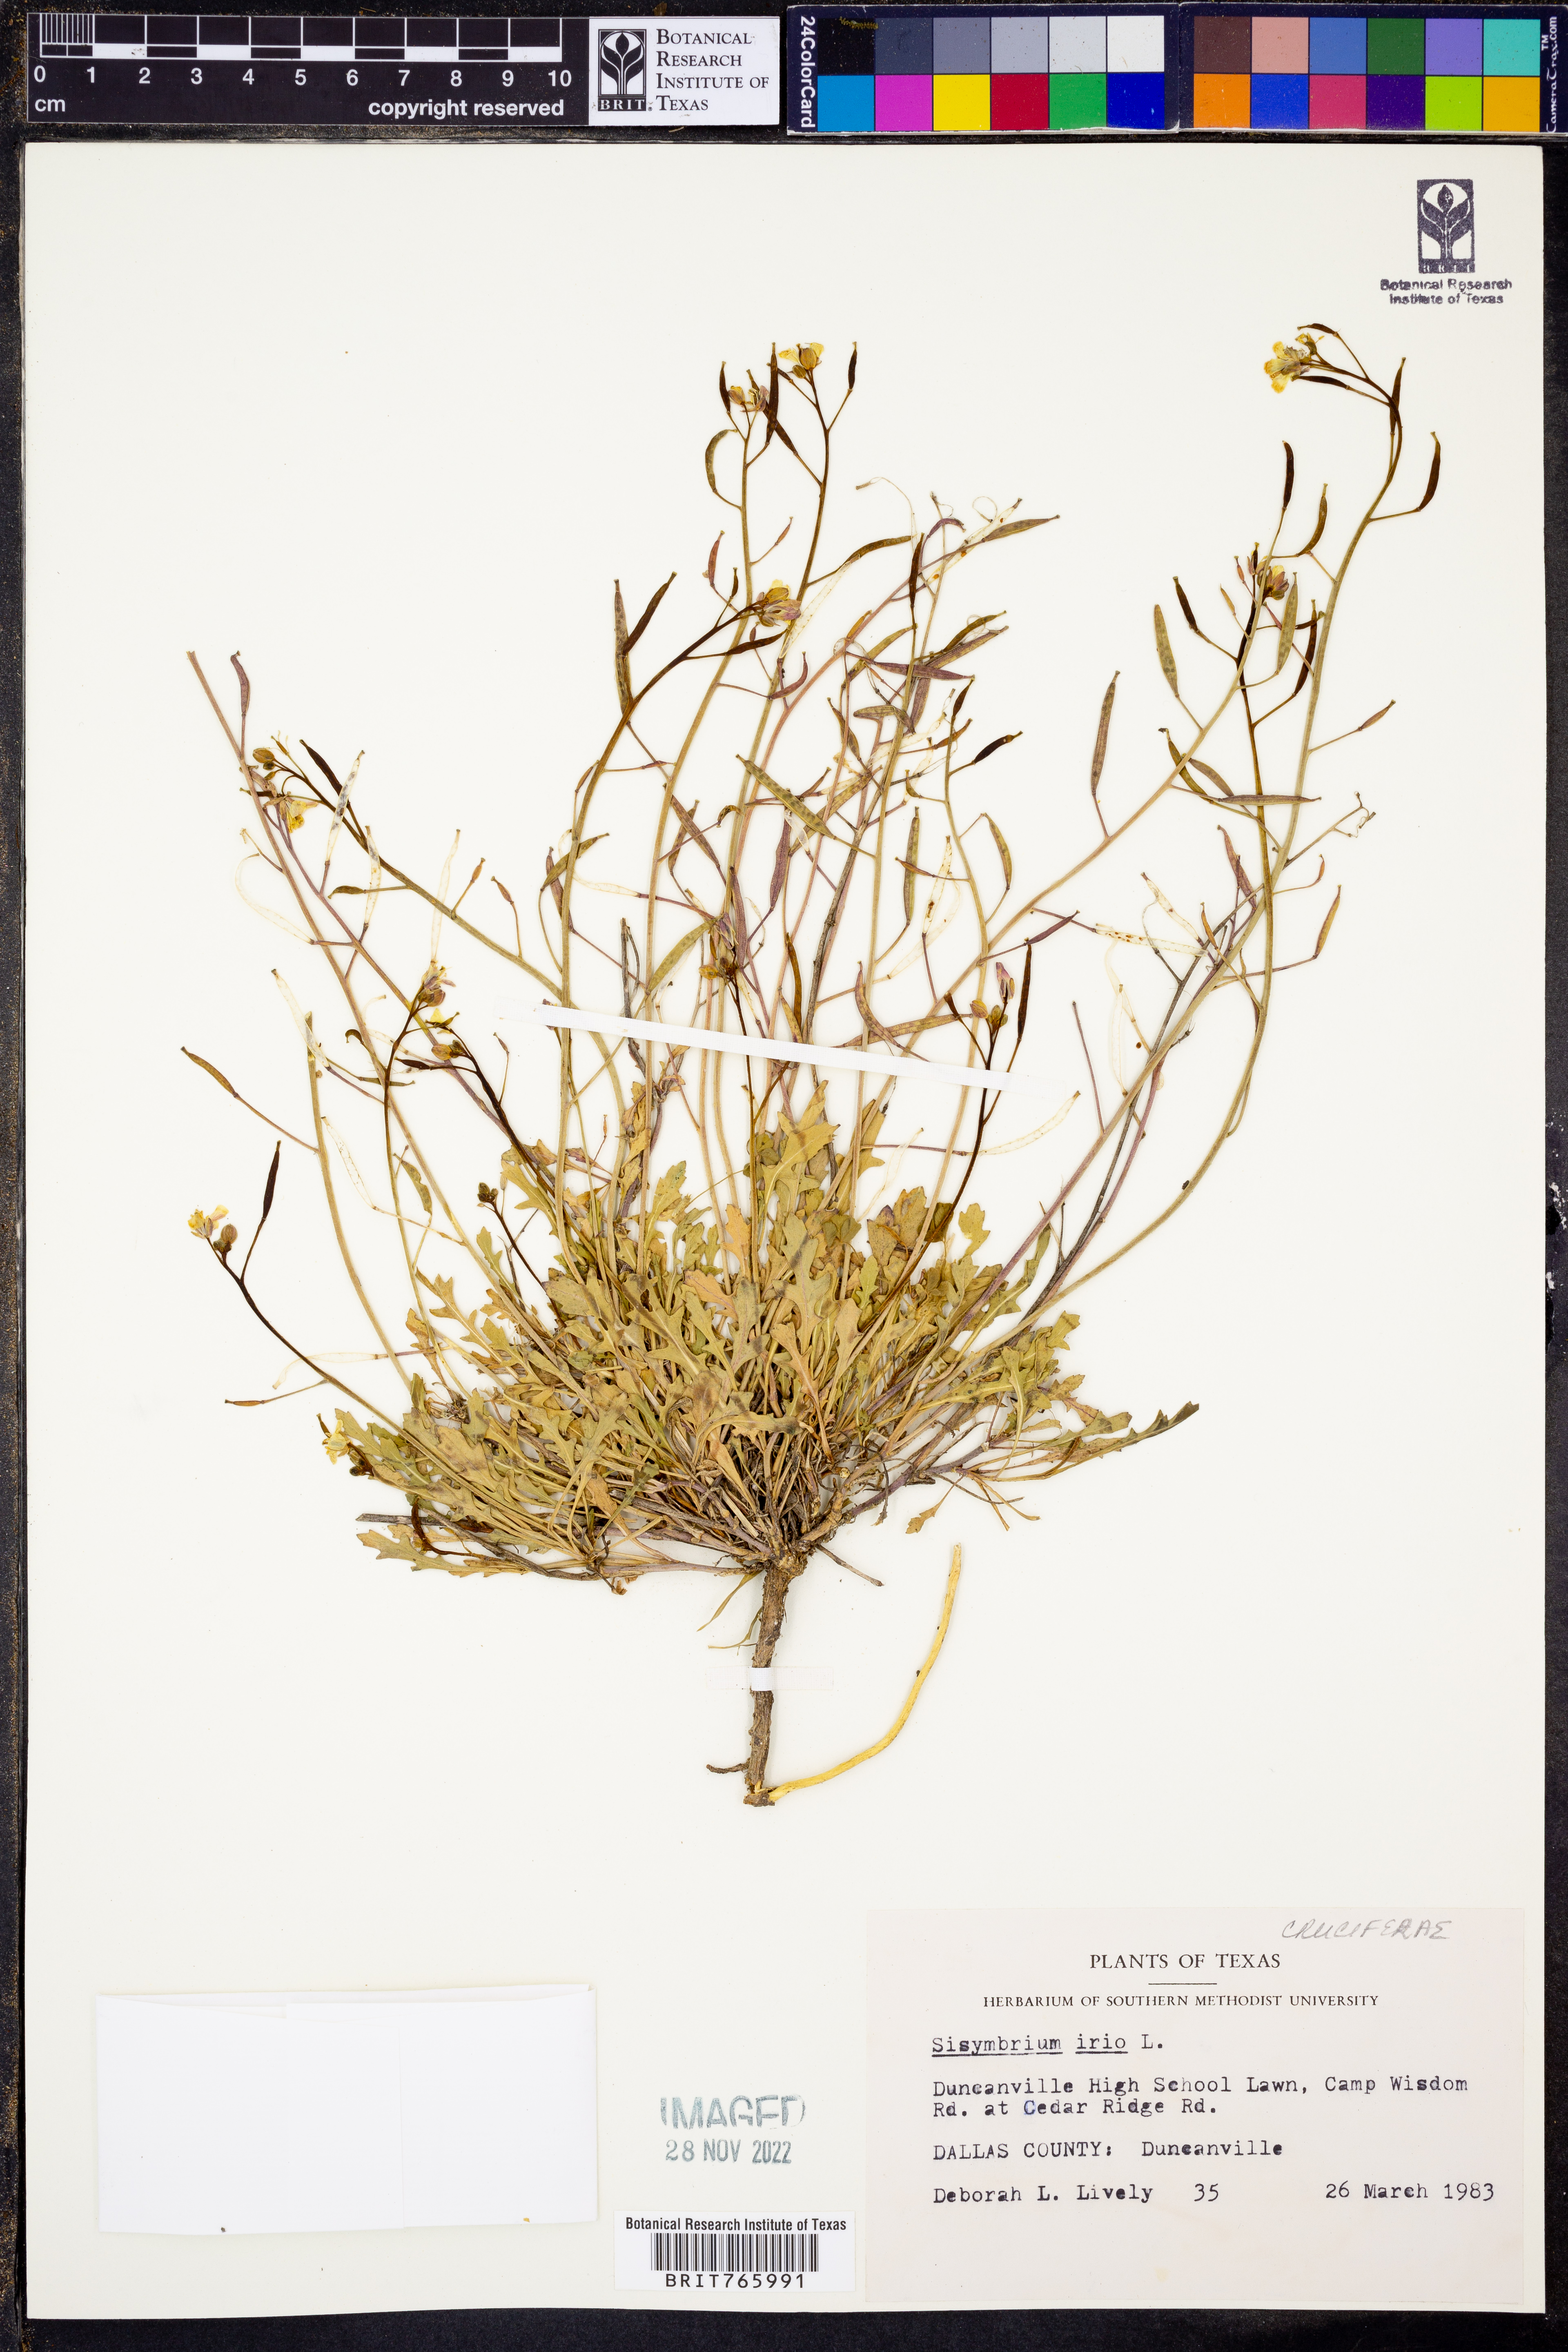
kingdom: Plantae
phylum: Tracheophyta
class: Magnoliopsida
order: Brassicales
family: Brassicaceae
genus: Sisymbrium
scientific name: Sisymbrium irio
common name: London rocket
